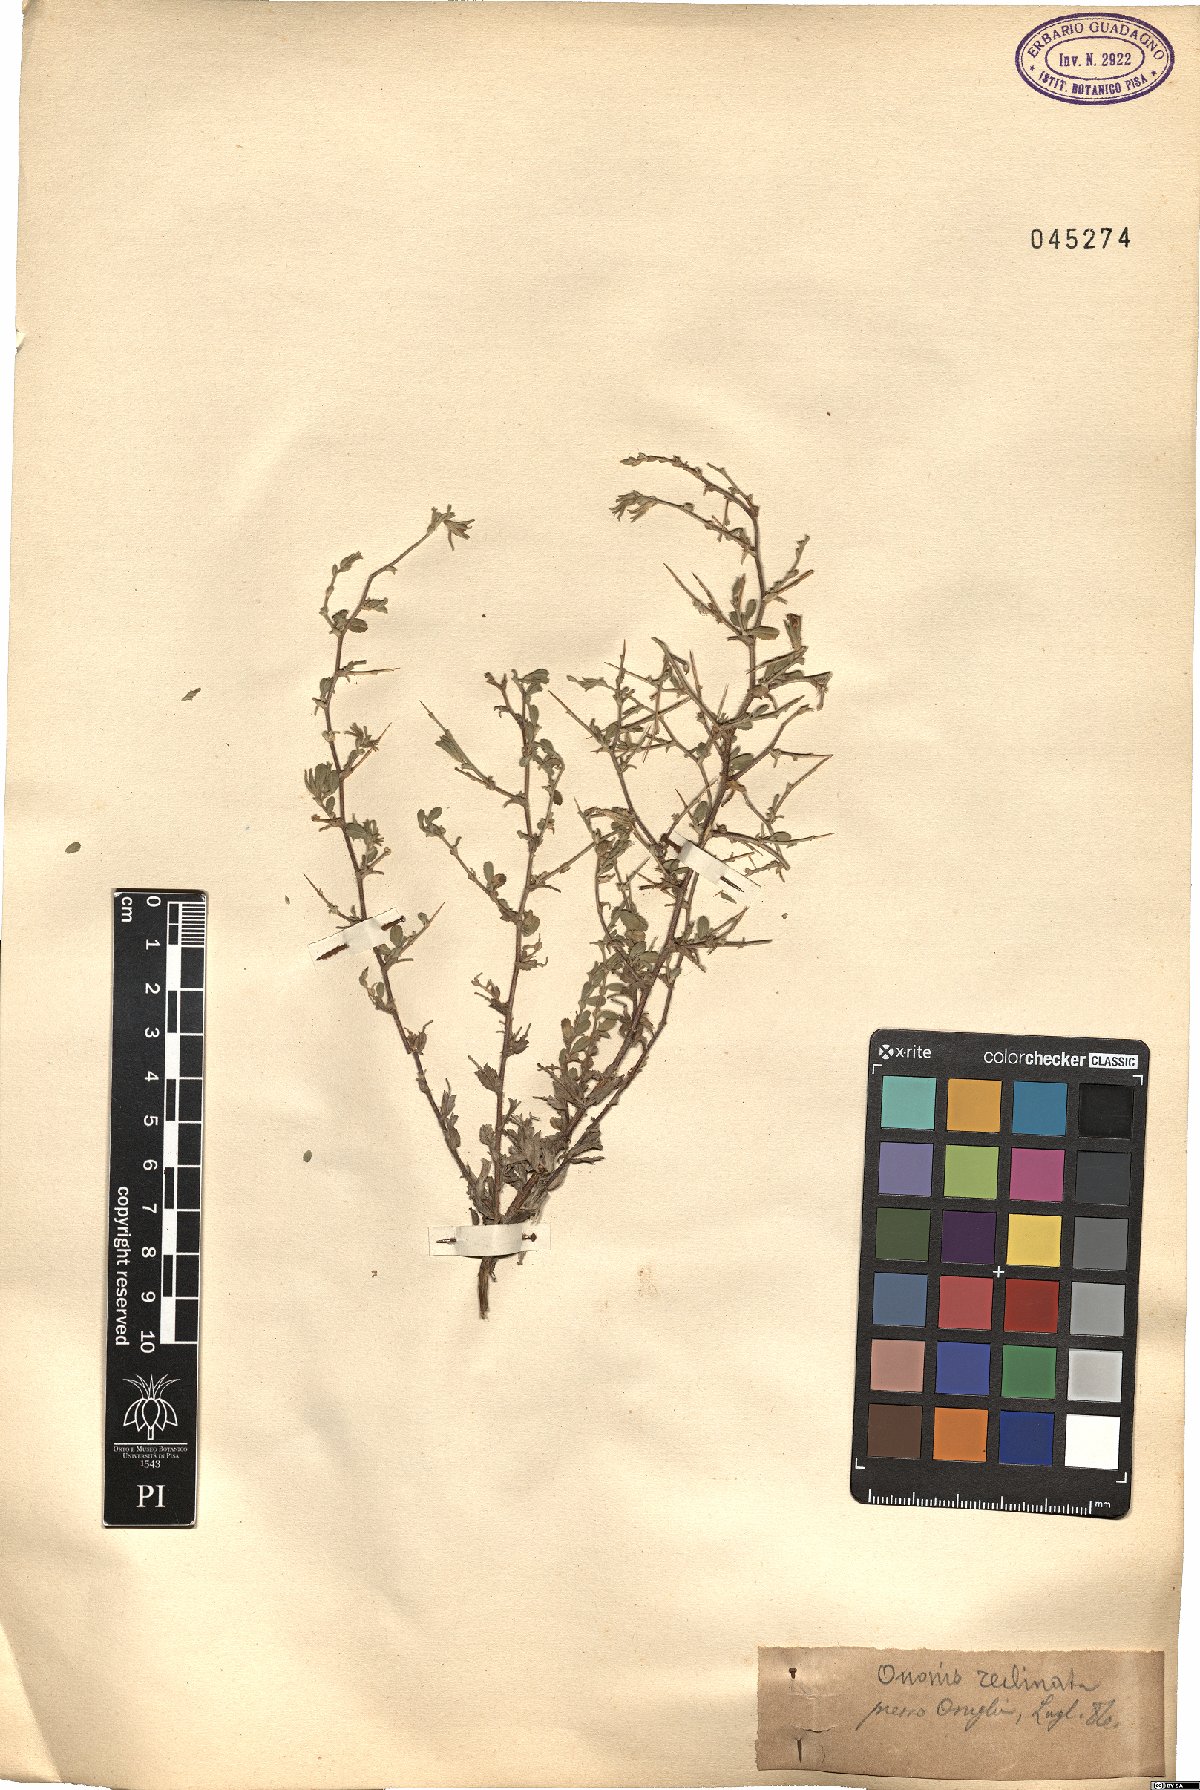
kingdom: Plantae
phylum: Tracheophyta
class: Magnoliopsida
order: Fabales
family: Fabaceae
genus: Ononis
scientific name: Ononis reclinata
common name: Small restharrow
